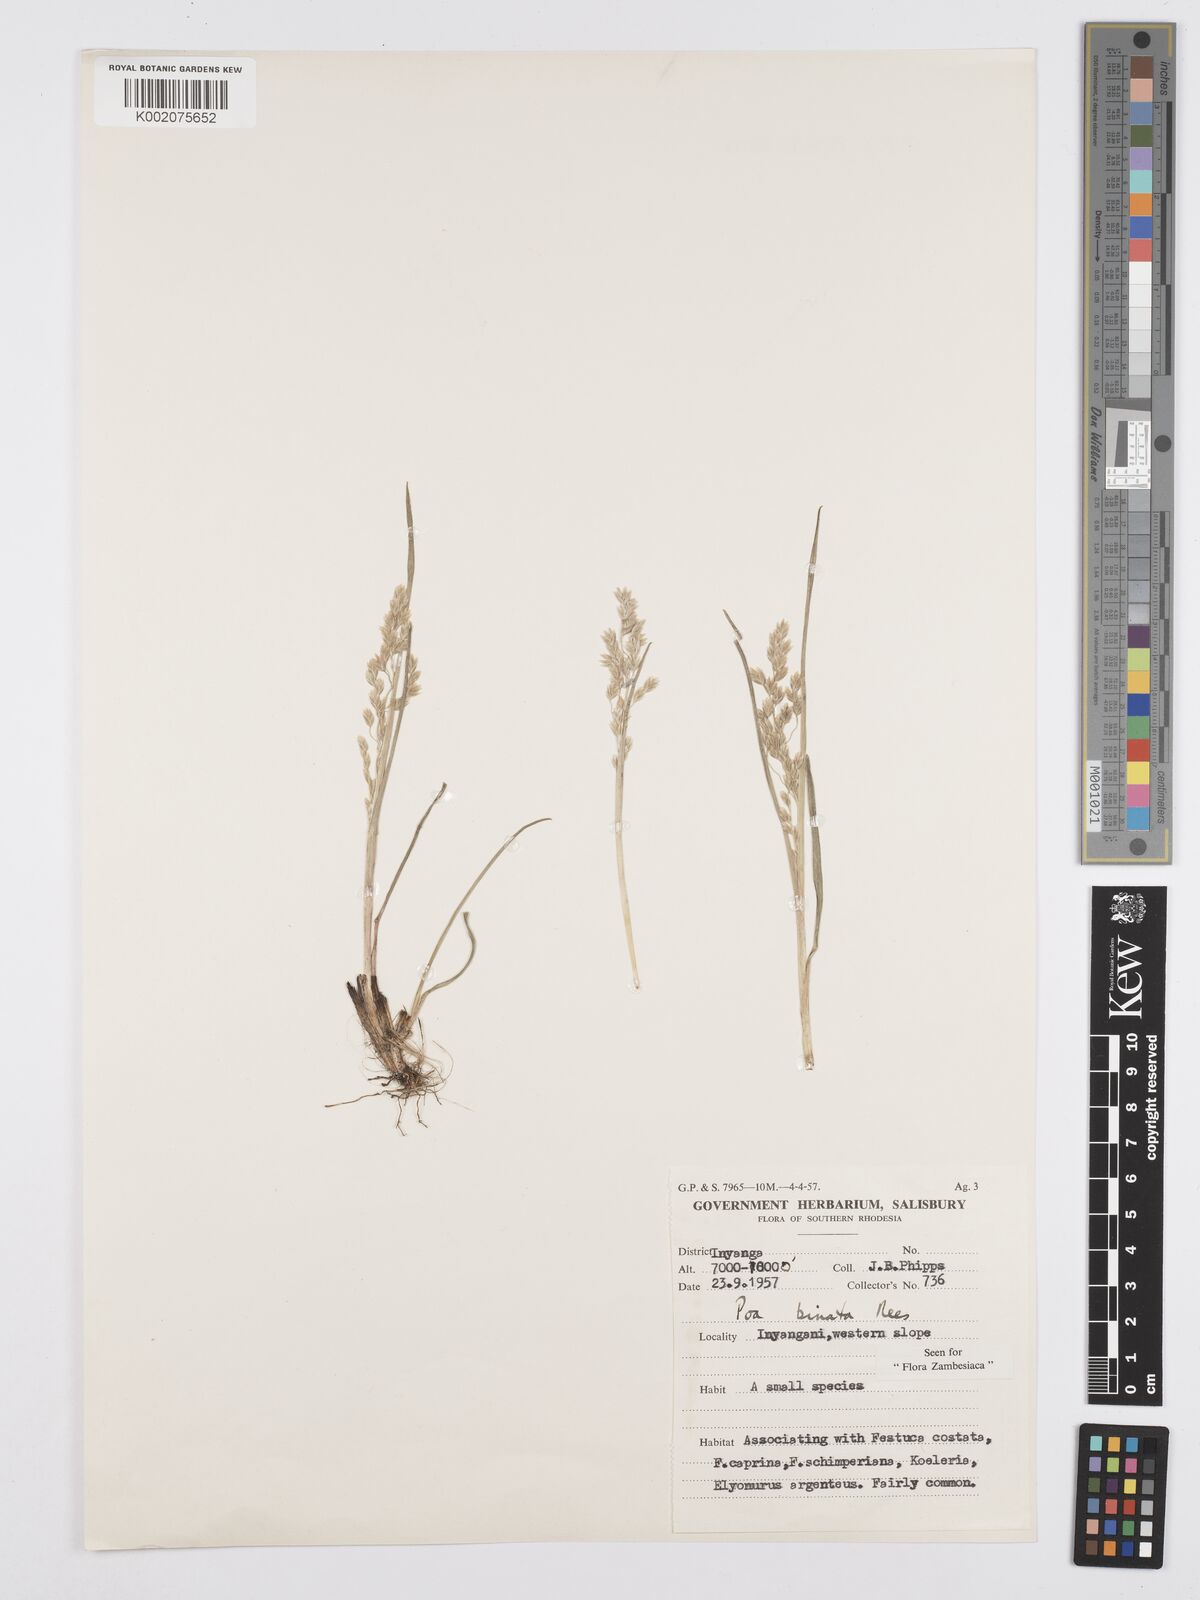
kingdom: Plantae
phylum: Tracheophyta
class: Liliopsida
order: Poales
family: Poaceae
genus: Poa
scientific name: Poa binata
